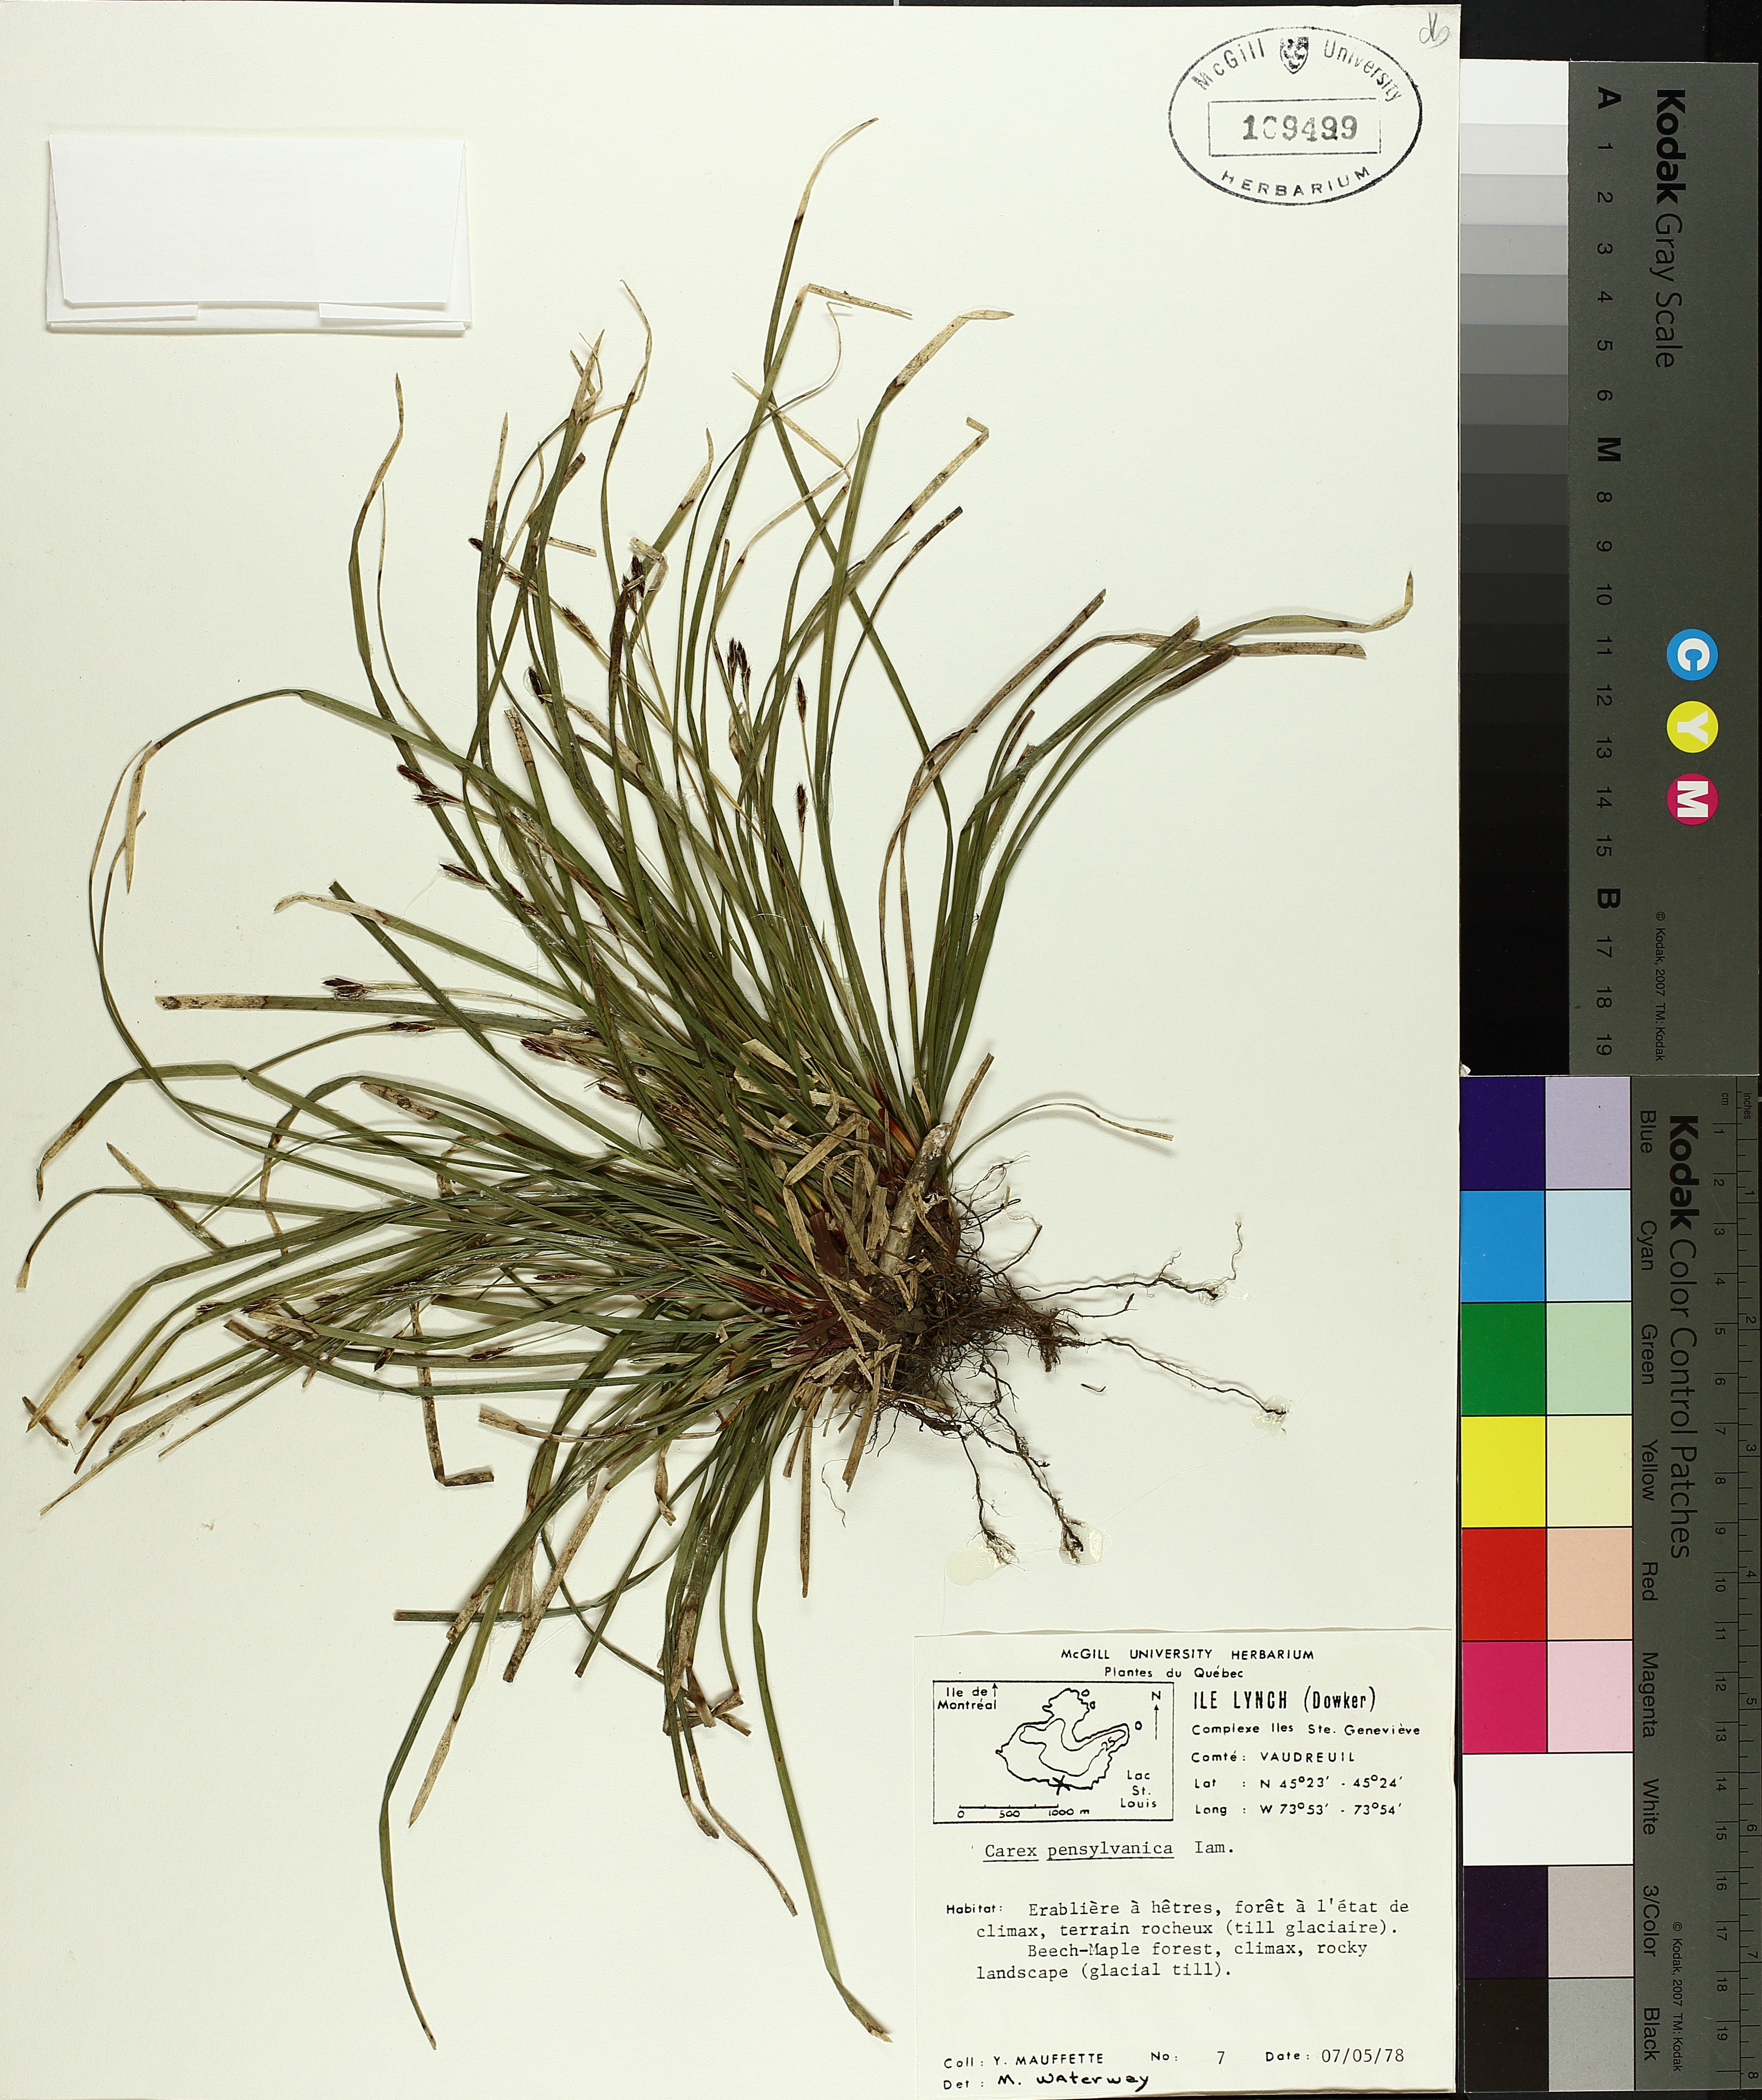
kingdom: Plantae
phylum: Tracheophyta
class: Liliopsida
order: Poales
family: Cyperaceae
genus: Carex
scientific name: Carex pensylvanica
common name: Common oak sedge
